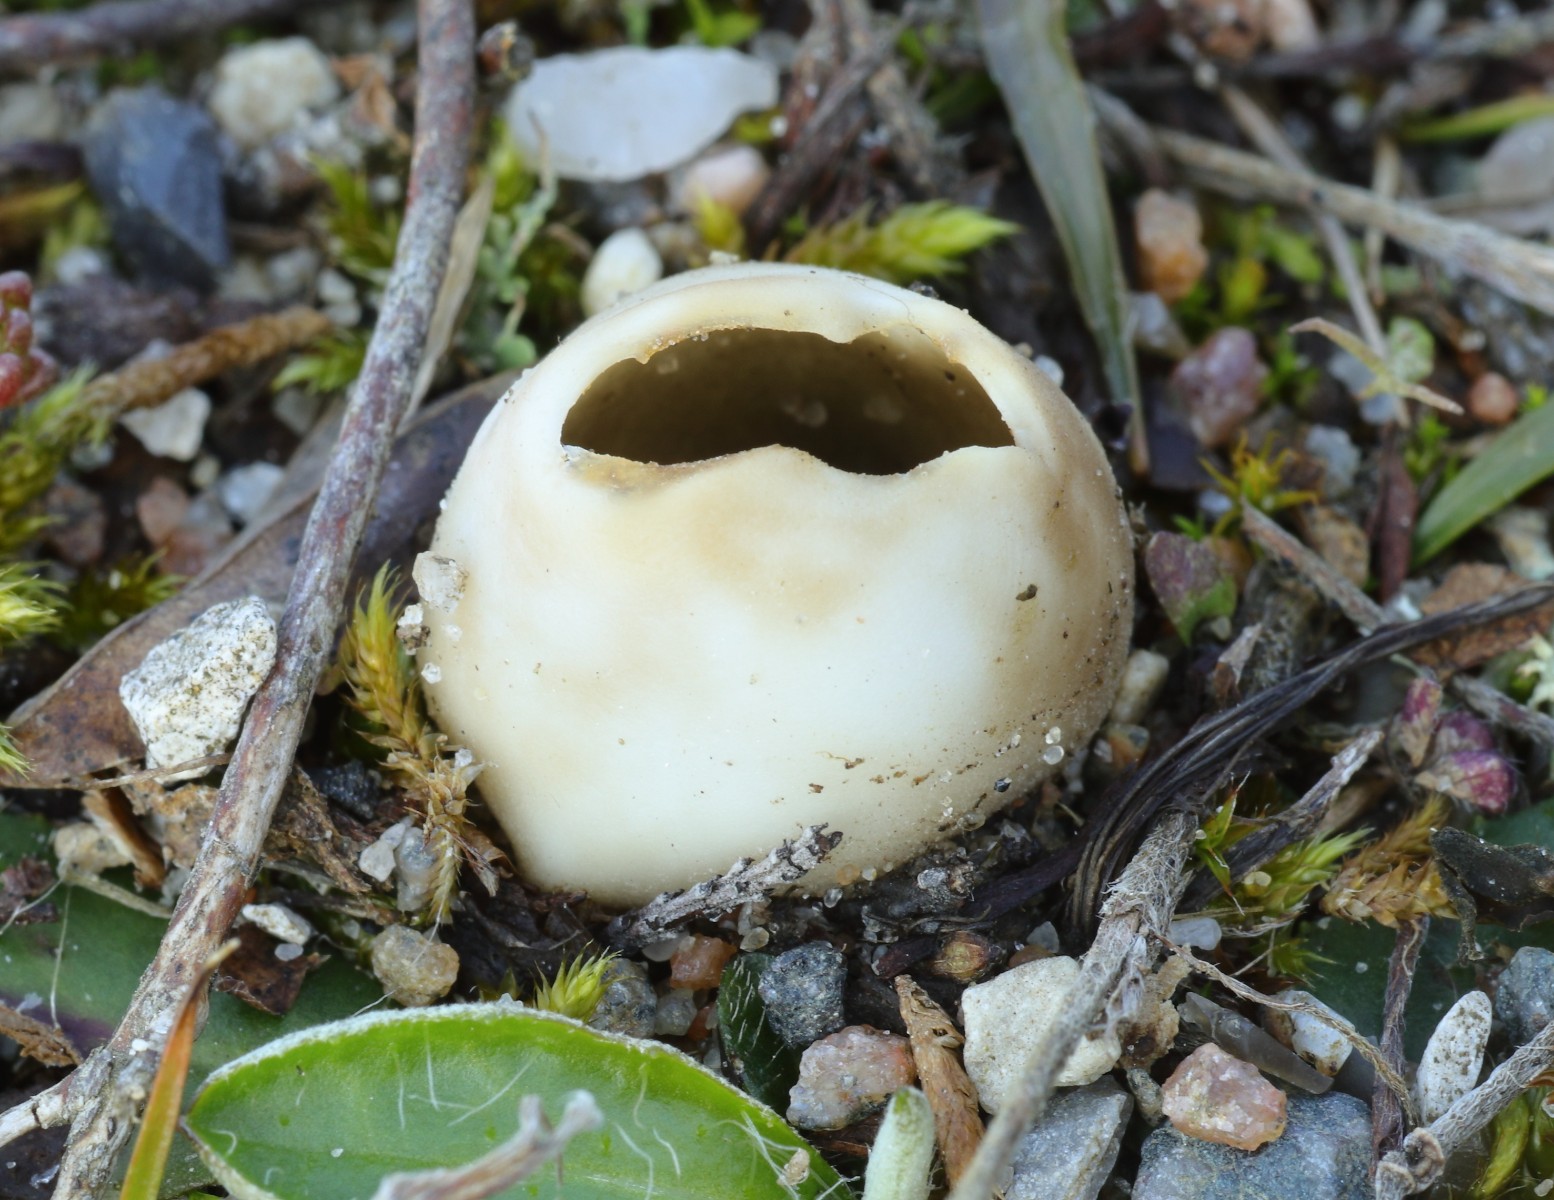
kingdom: Fungi
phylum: Ascomycota
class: Pezizomycetes
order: Pezizales
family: Helvellaceae
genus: Dissingia
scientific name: Dissingia leucomelaena
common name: sorthvid foldhat
